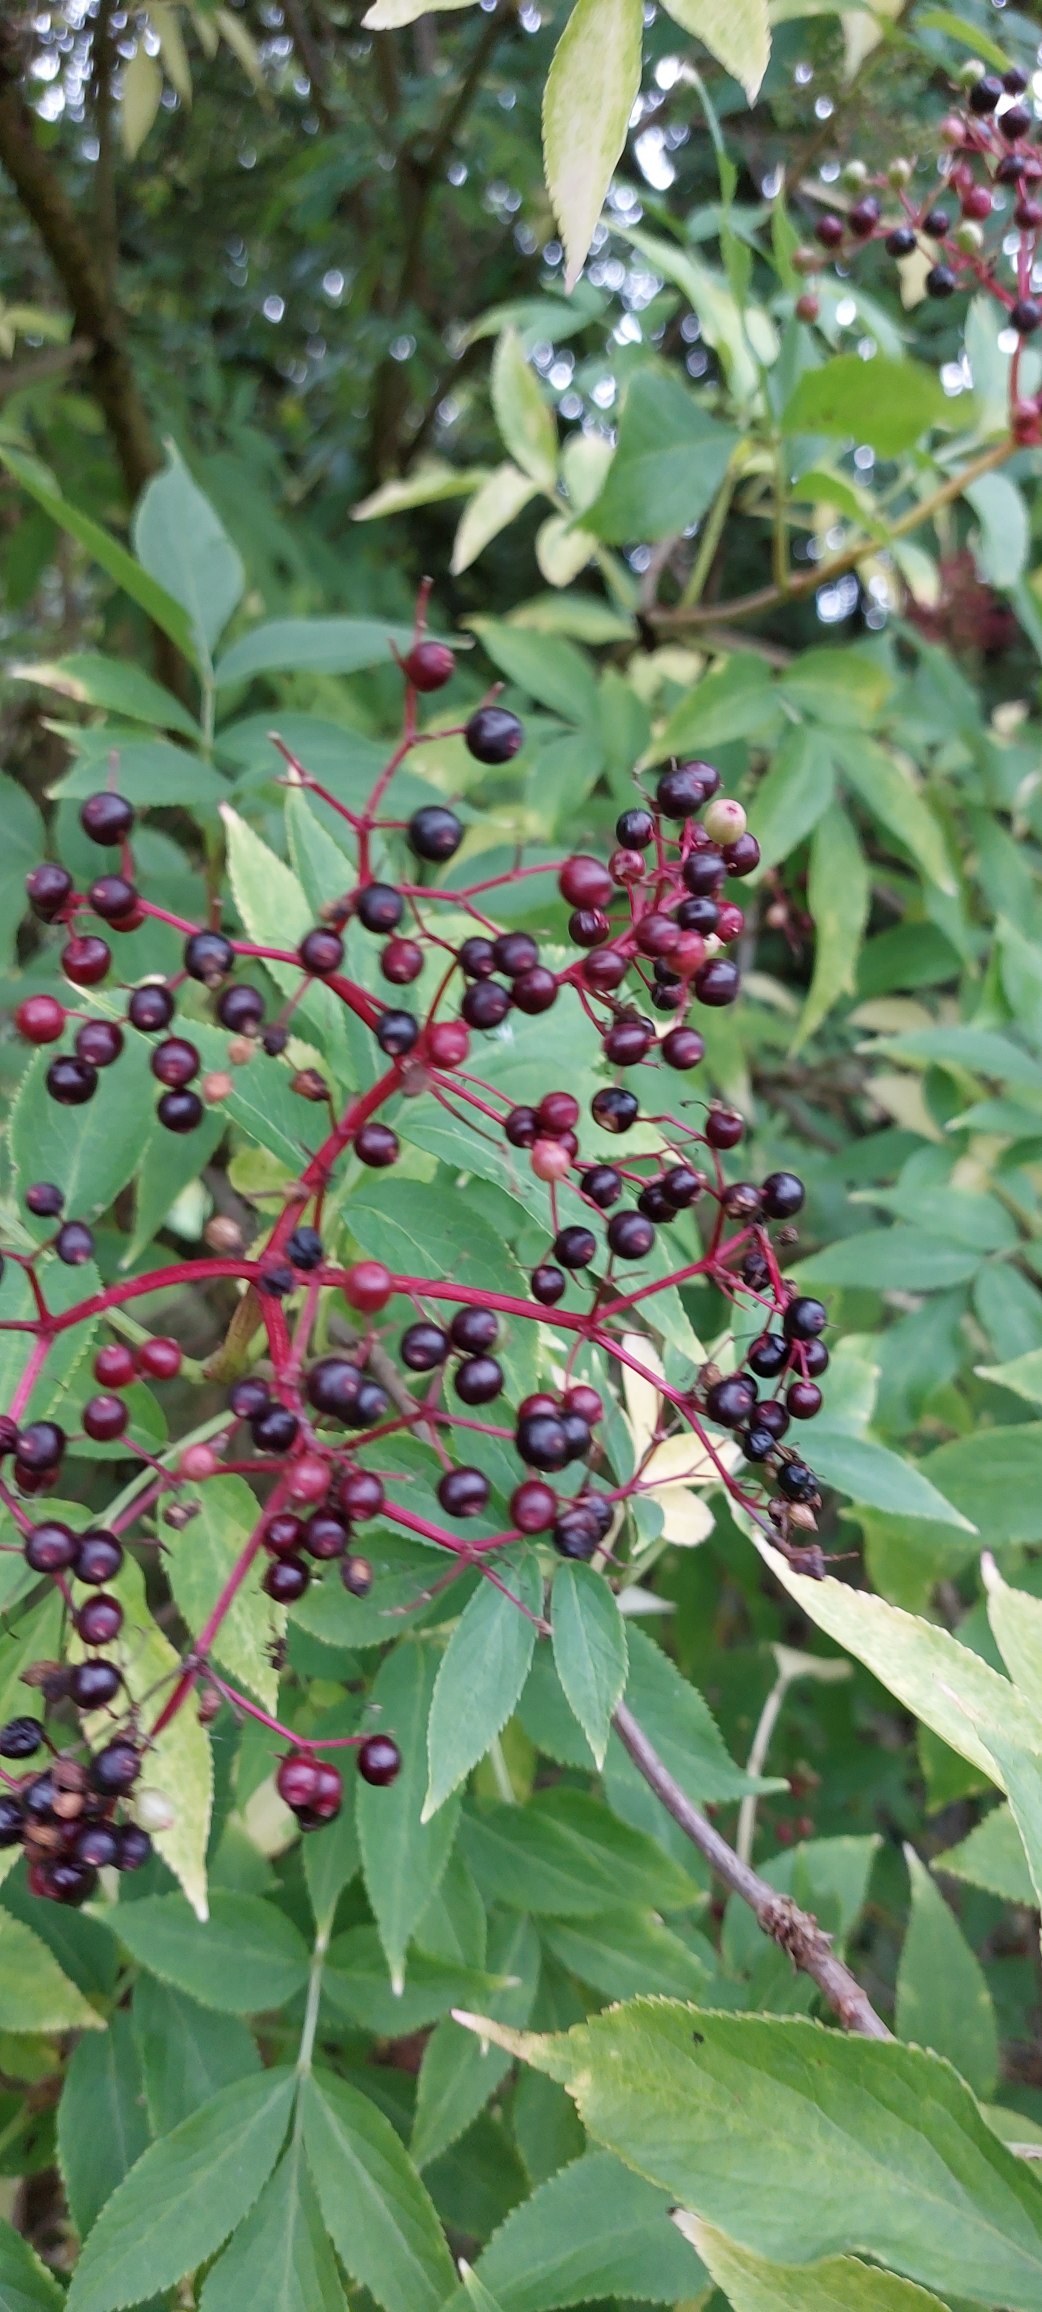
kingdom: Plantae
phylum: Tracheophyta
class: Magnoliopsida
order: Dipsacales
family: Viburnaceae
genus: Sambucus
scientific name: Sambucus nigra
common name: Almindelig hyld
